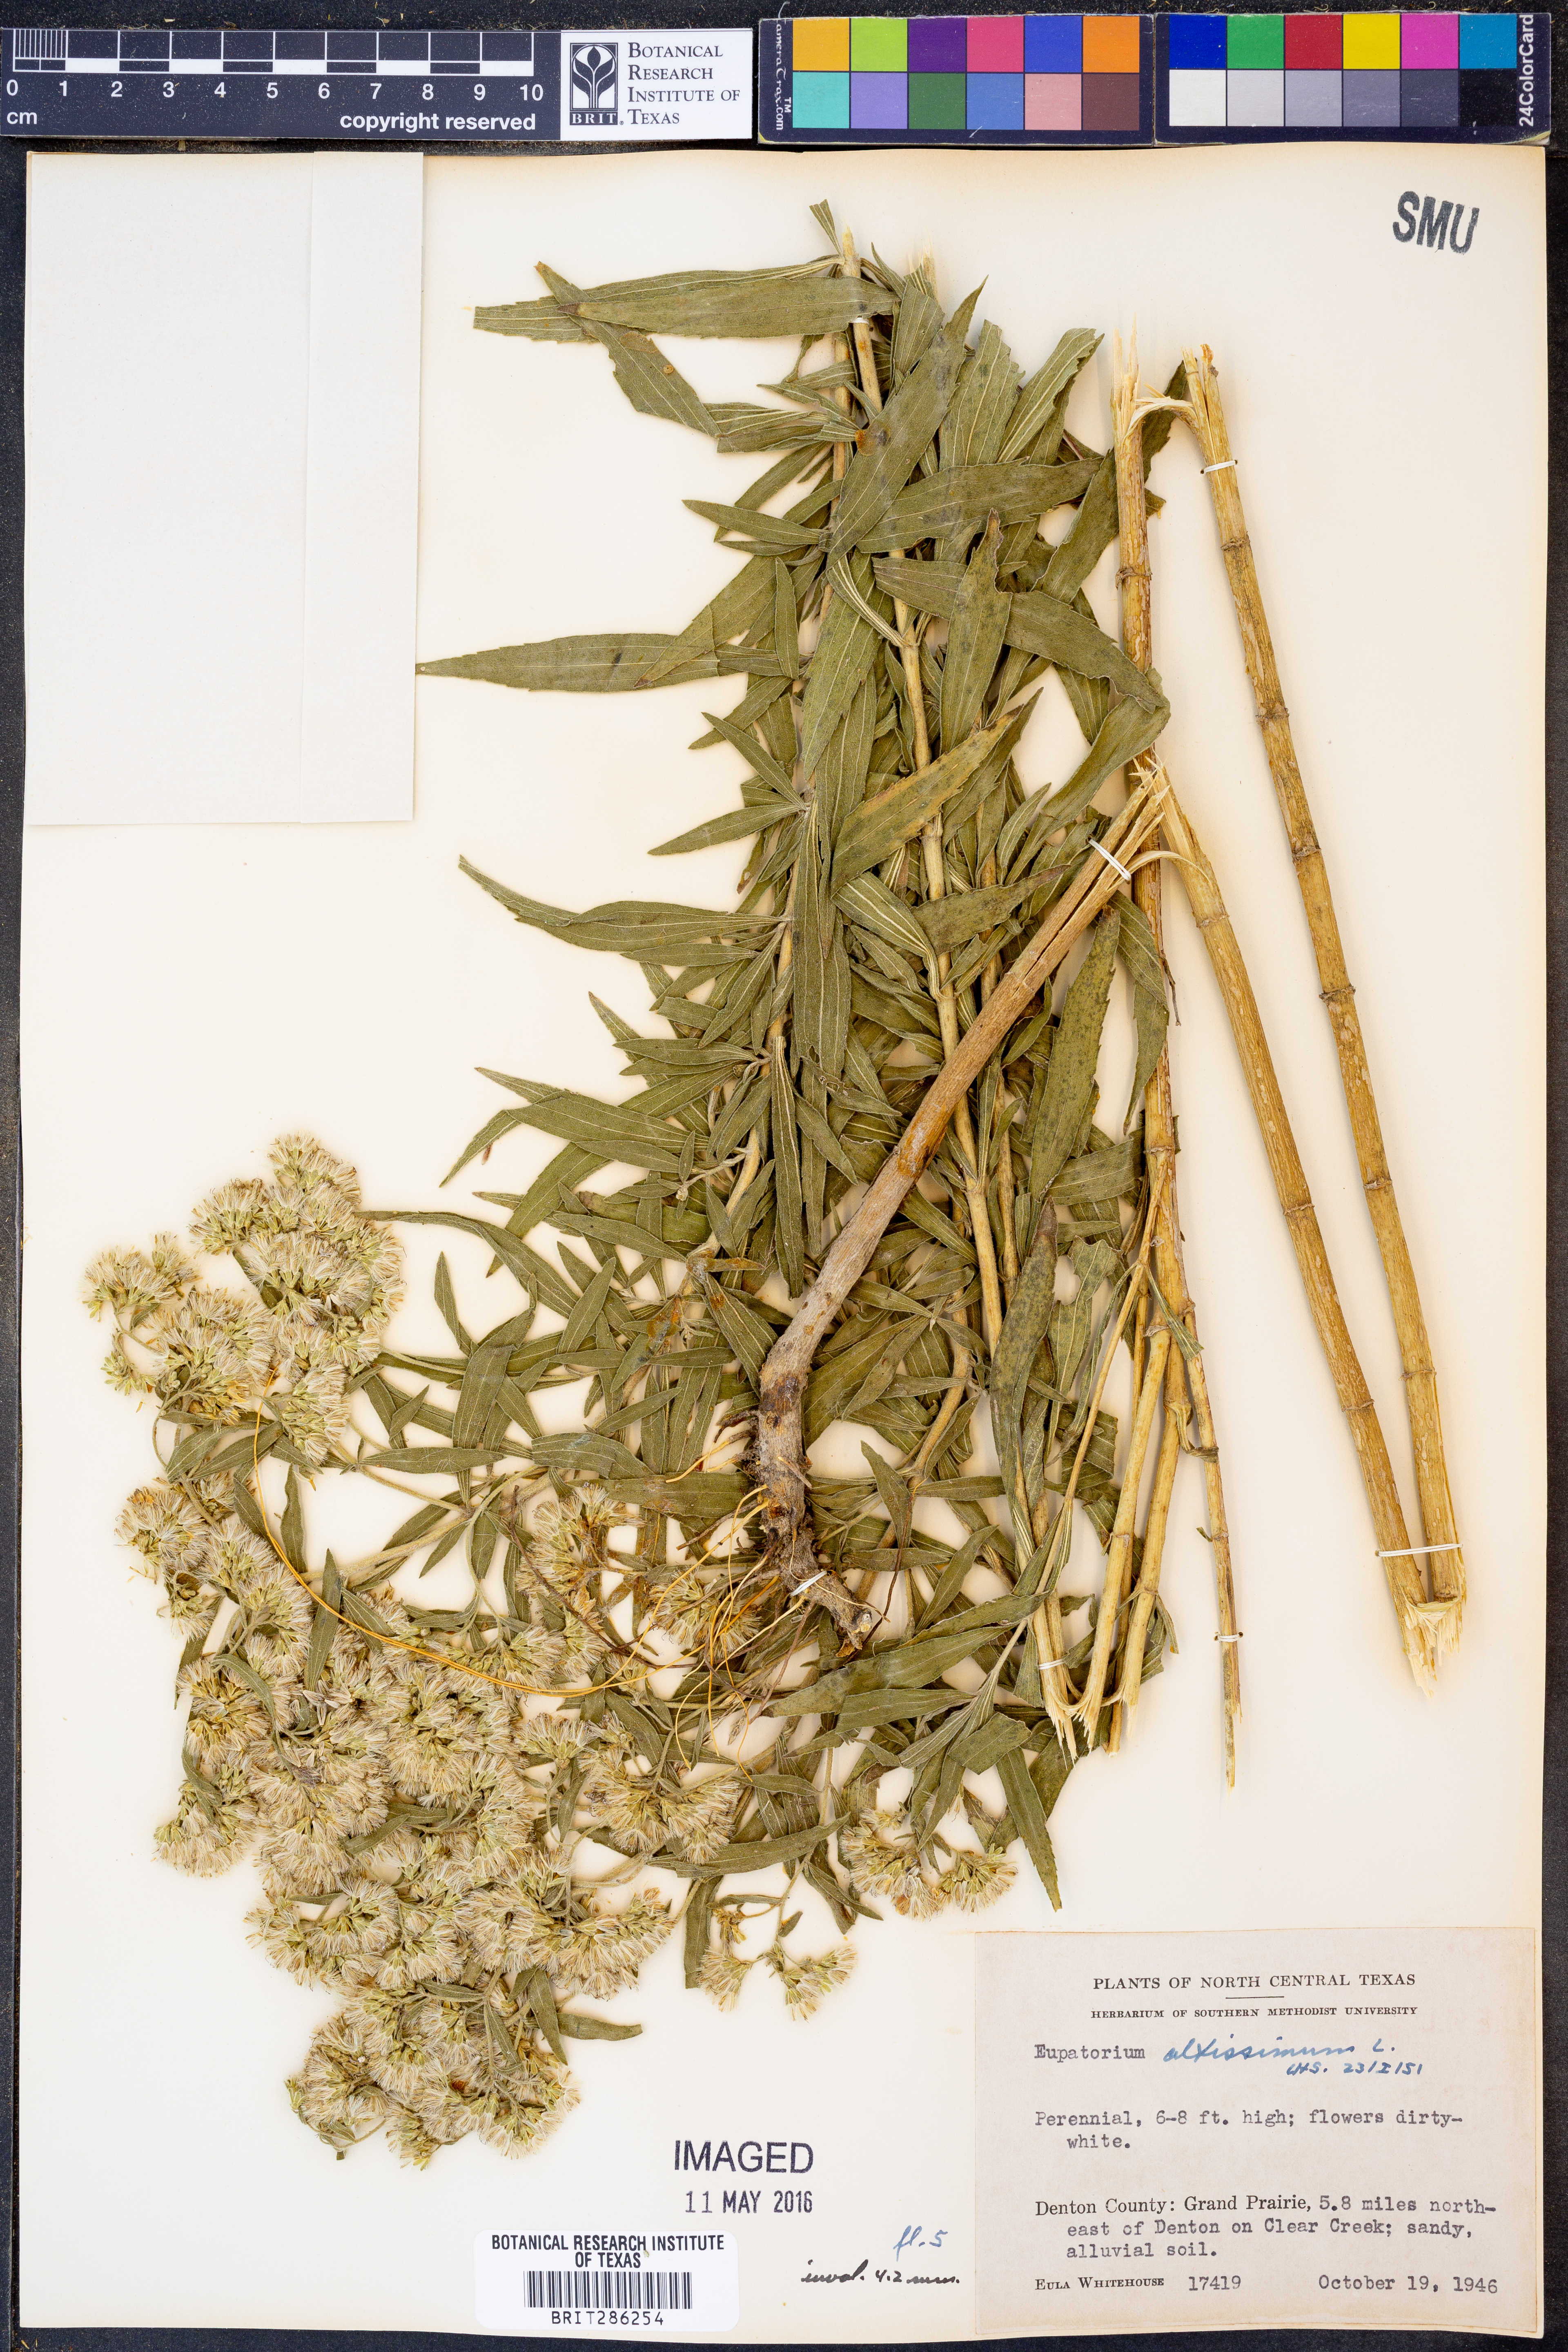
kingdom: Plantae
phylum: Tracheophyta
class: Magnoliopsida
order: Asterales
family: Asteraceae
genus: Eupatorium
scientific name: Eupatorium altissimum
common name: Tall thoroughwort
